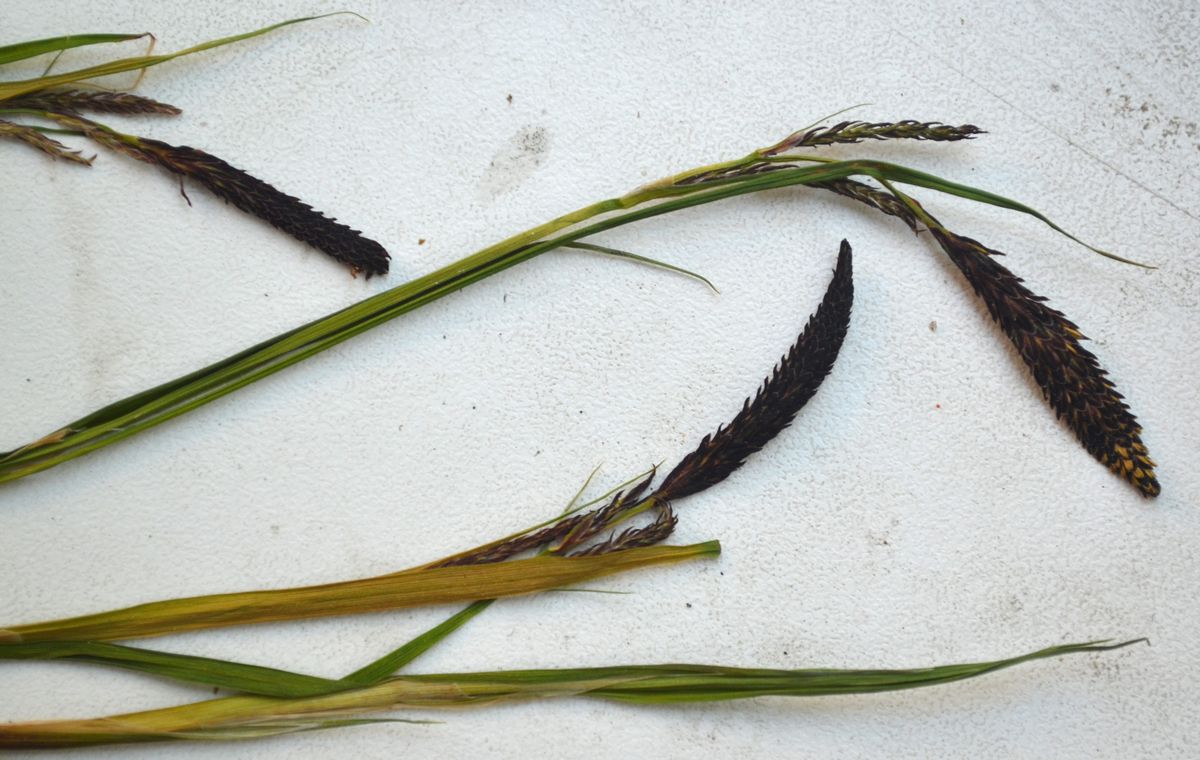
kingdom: Plantae
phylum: Tracheophyta
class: Liliopsida
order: Poales
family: Cyperaceae
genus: Carex
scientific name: Carex cespitosa
